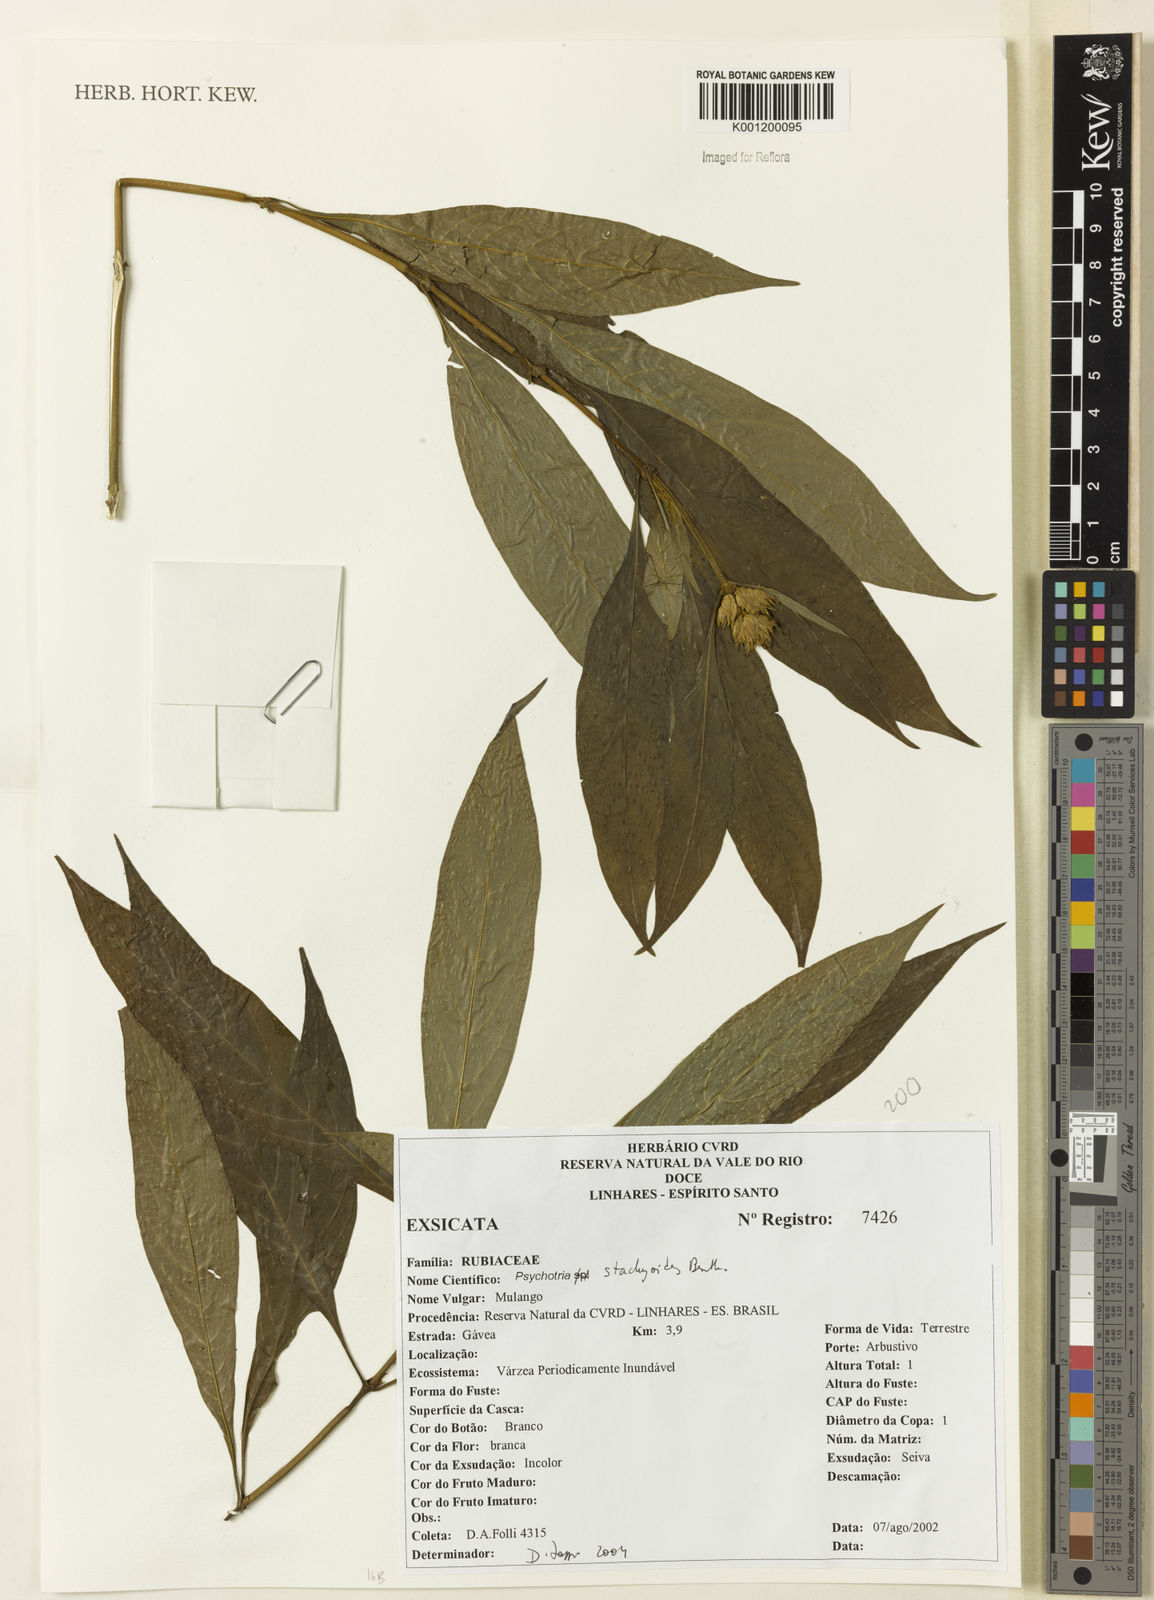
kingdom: Plantae
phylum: Tracheophyta
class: Magnoliopsida
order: Gentianales
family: Rubiaceae
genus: Psychotria
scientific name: Psychotria stachyoides
